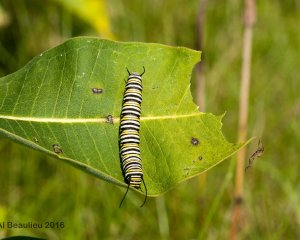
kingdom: Animalia
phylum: Arthropoda
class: Insecta
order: Lepidoptera
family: Nymphalidae
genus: Danaus
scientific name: Danaus plexippus
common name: Monarch
